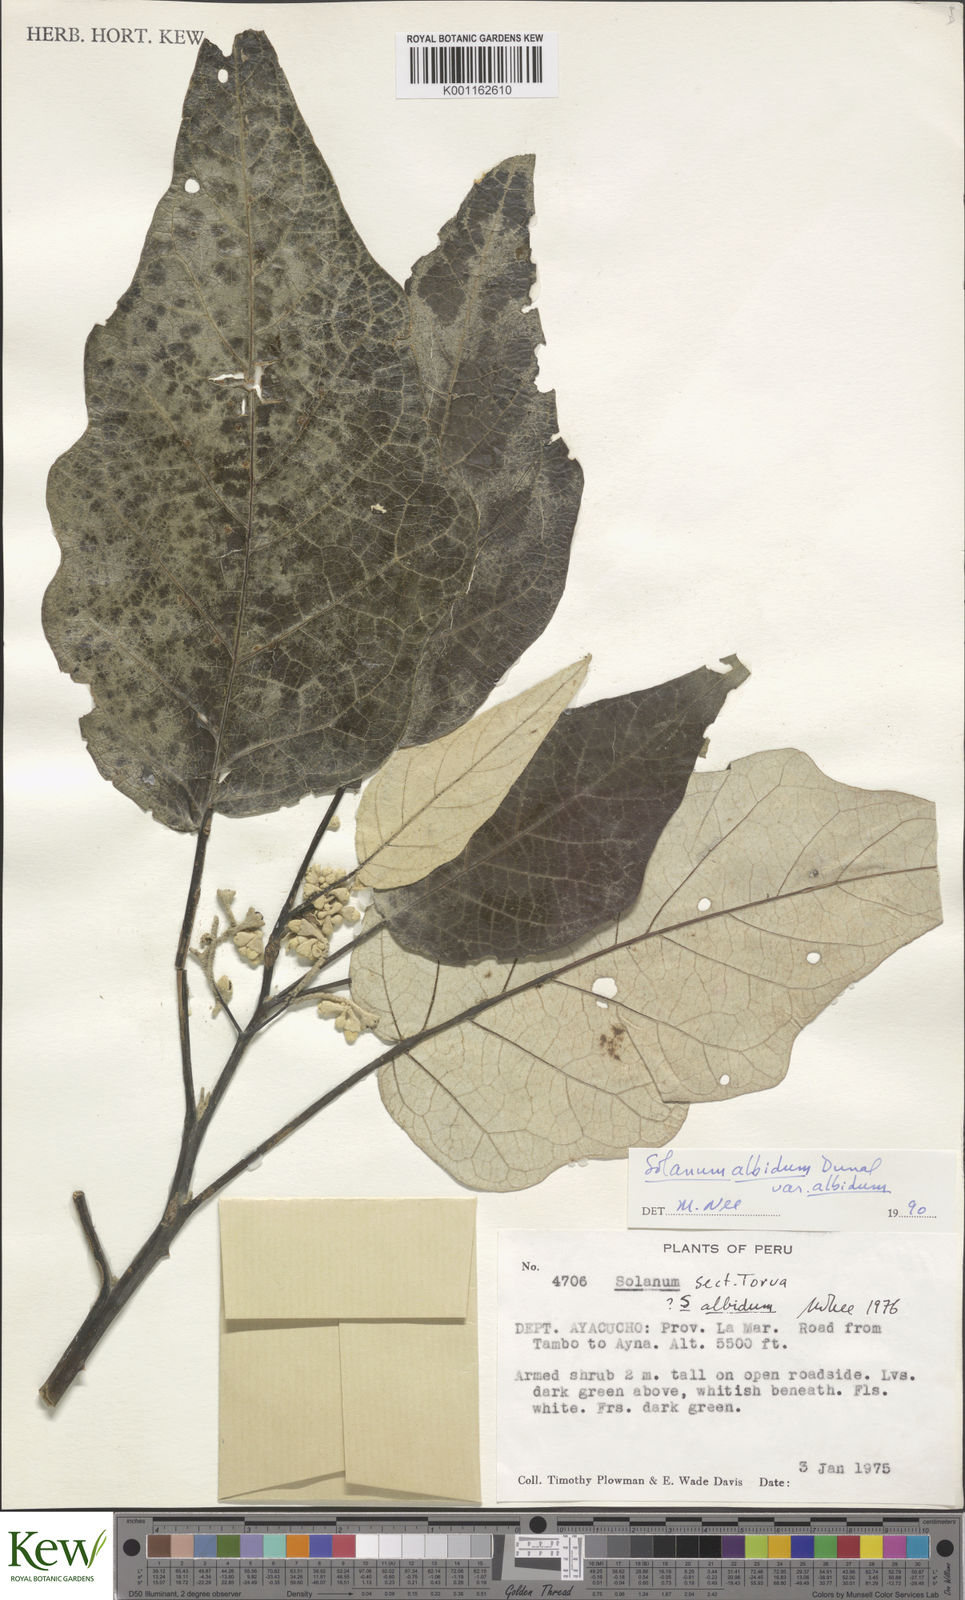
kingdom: Plantae
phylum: Tracheophyta
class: Magnoliopsida
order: Solanales
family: Solanaceae
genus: Solanum
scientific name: Solanum albidum
